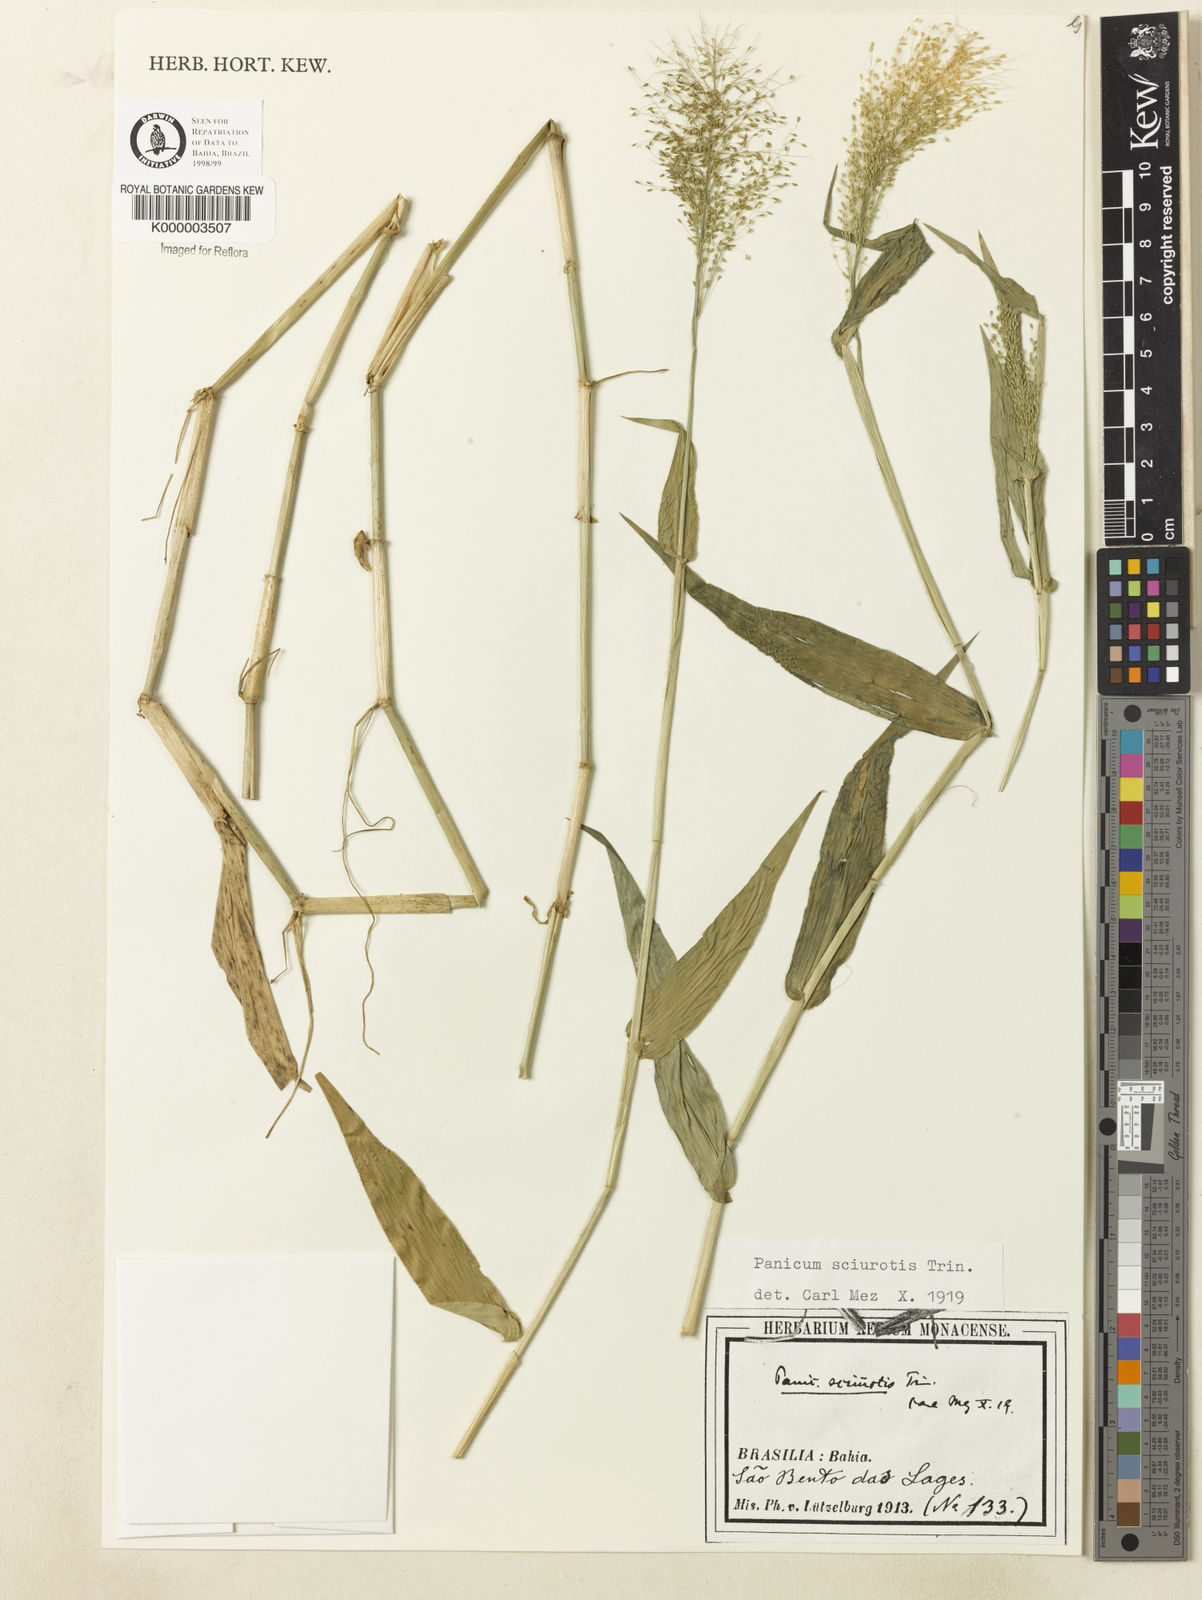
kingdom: Plantae
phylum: Tracheophyta
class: Liliopsida
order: Poales
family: Poaceae
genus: Dichanthelium
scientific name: Dichanthelium sciurotoides
